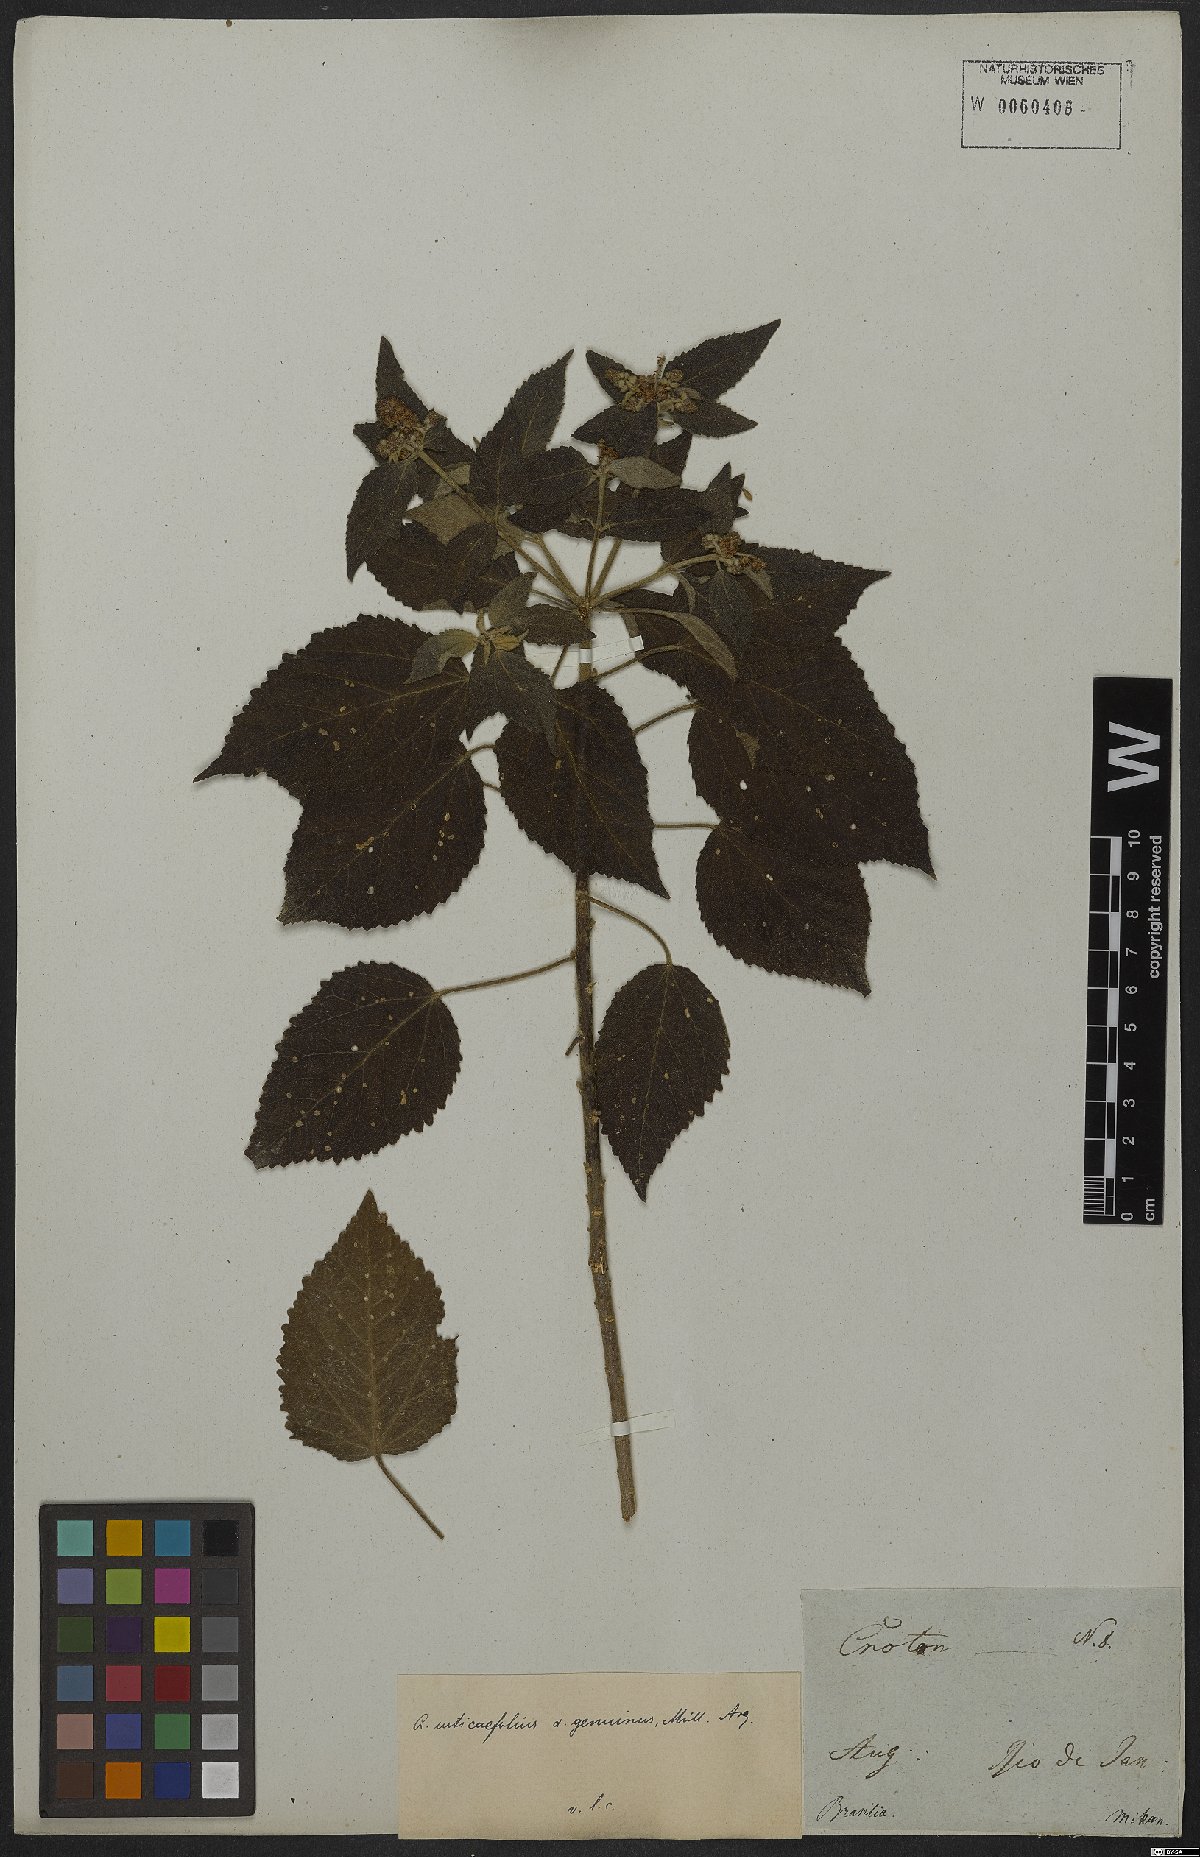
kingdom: Plantae
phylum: Tracheophyta
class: Magnoliopsida
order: Malpighiales
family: Euphorbiaceae
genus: Croton
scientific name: Croton urticifolius
